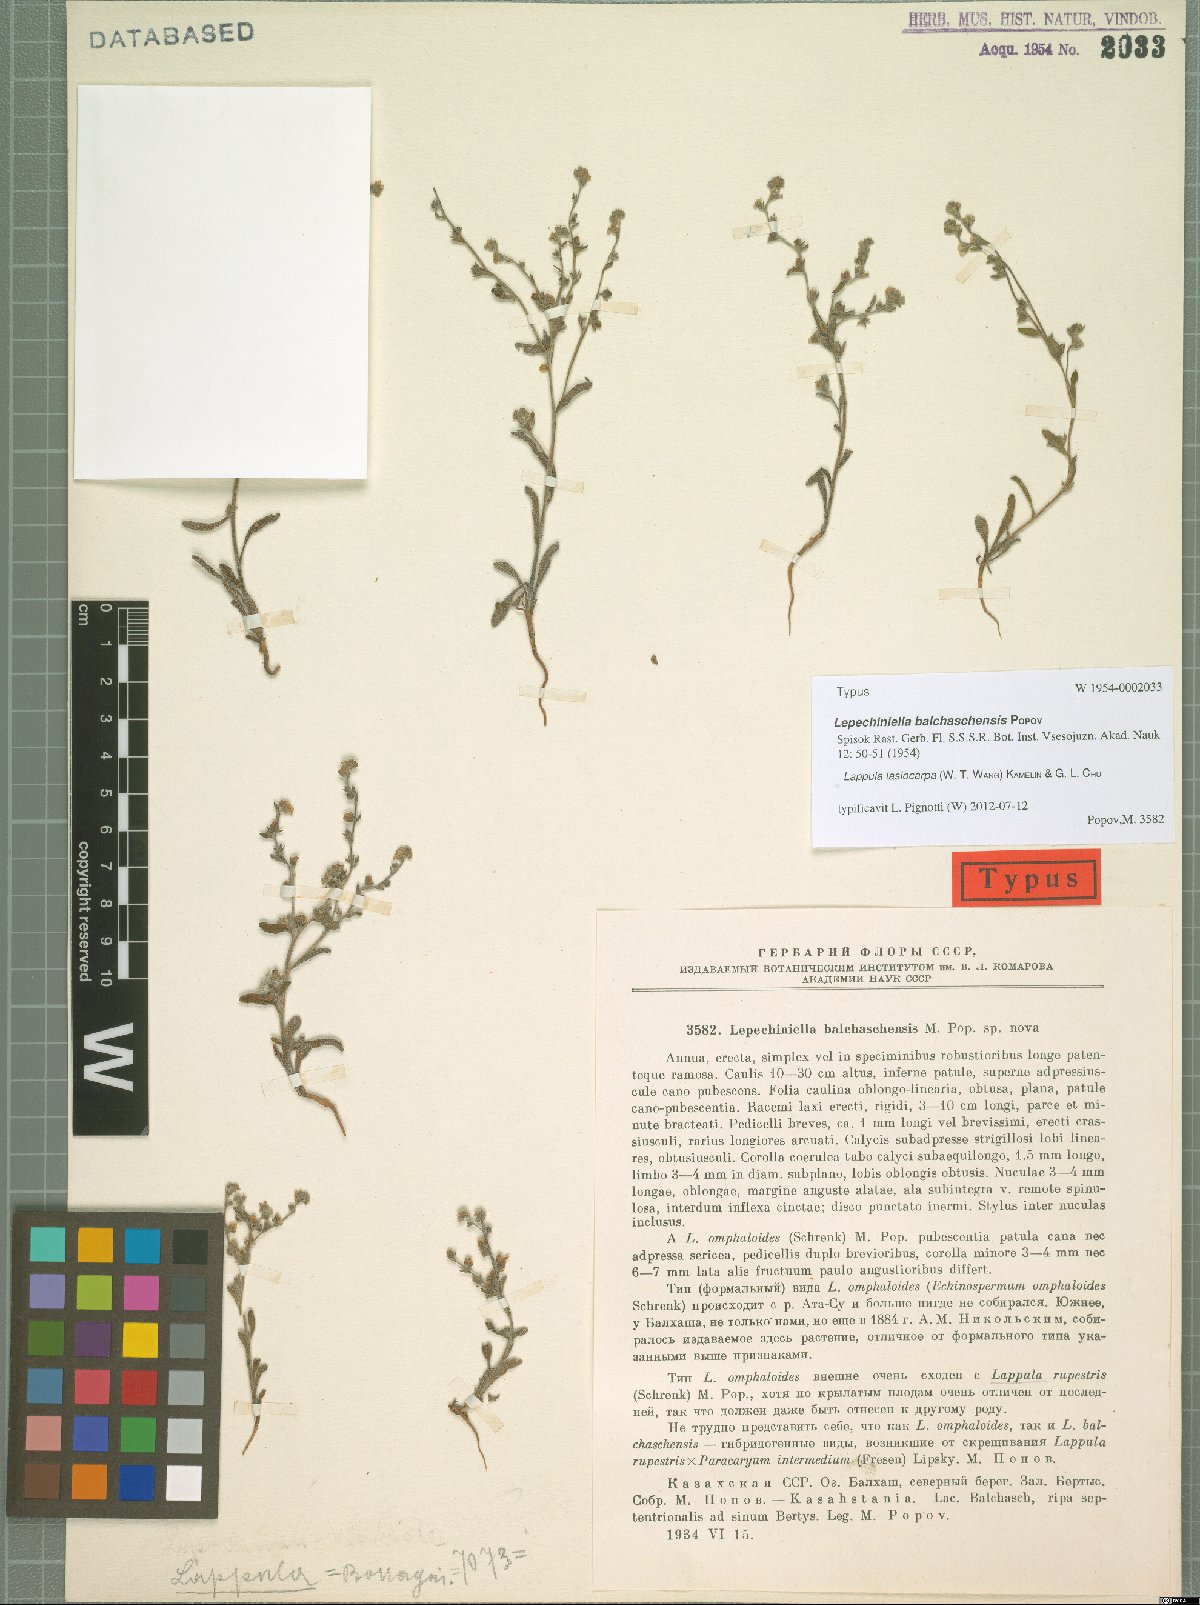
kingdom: Plantae
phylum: Tracheophyta
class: Magnoliopsida
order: Boraginales
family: Boraginaceae
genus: Lepechiniella
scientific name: Lepechiniella lasiocarpa
